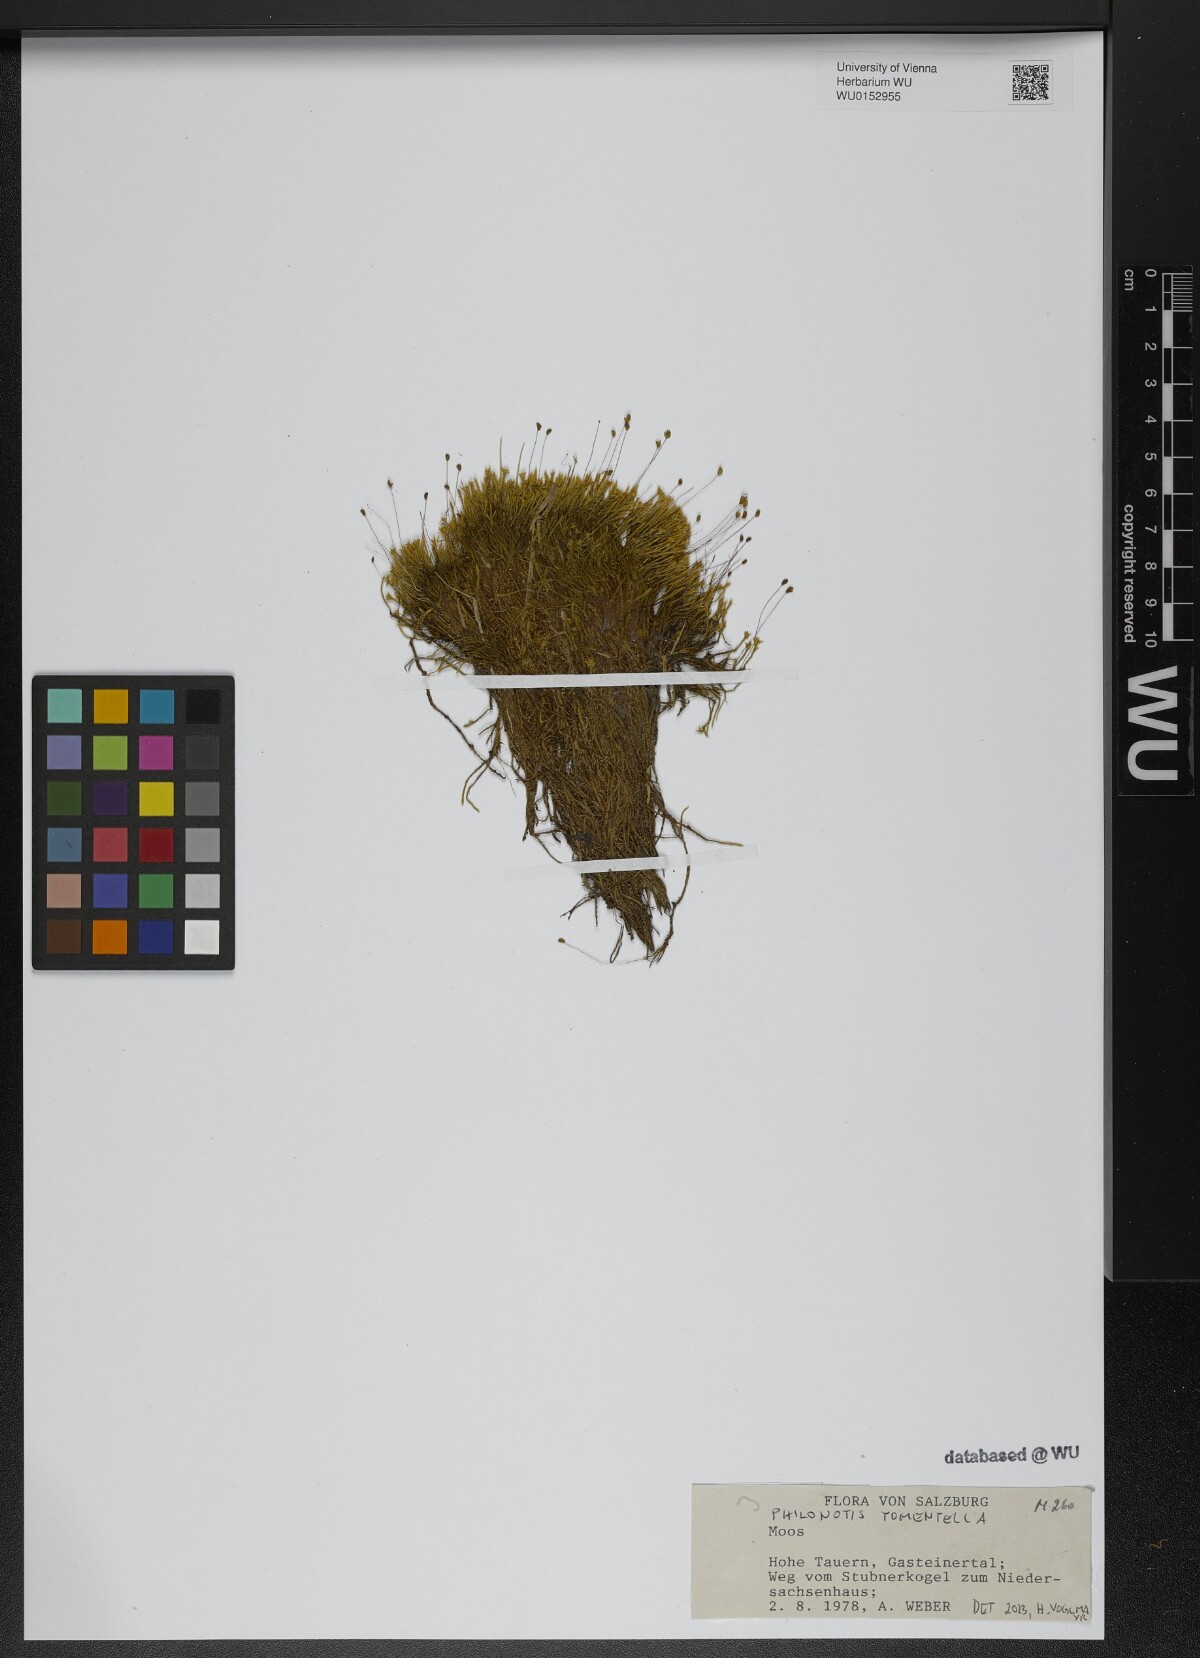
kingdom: Plantae
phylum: Bryophyta
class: Bryopsida
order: Bartramiales
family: Bartramiaceae
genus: Philonotis
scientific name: Philonotis tomentella
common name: Woolly apple moss
